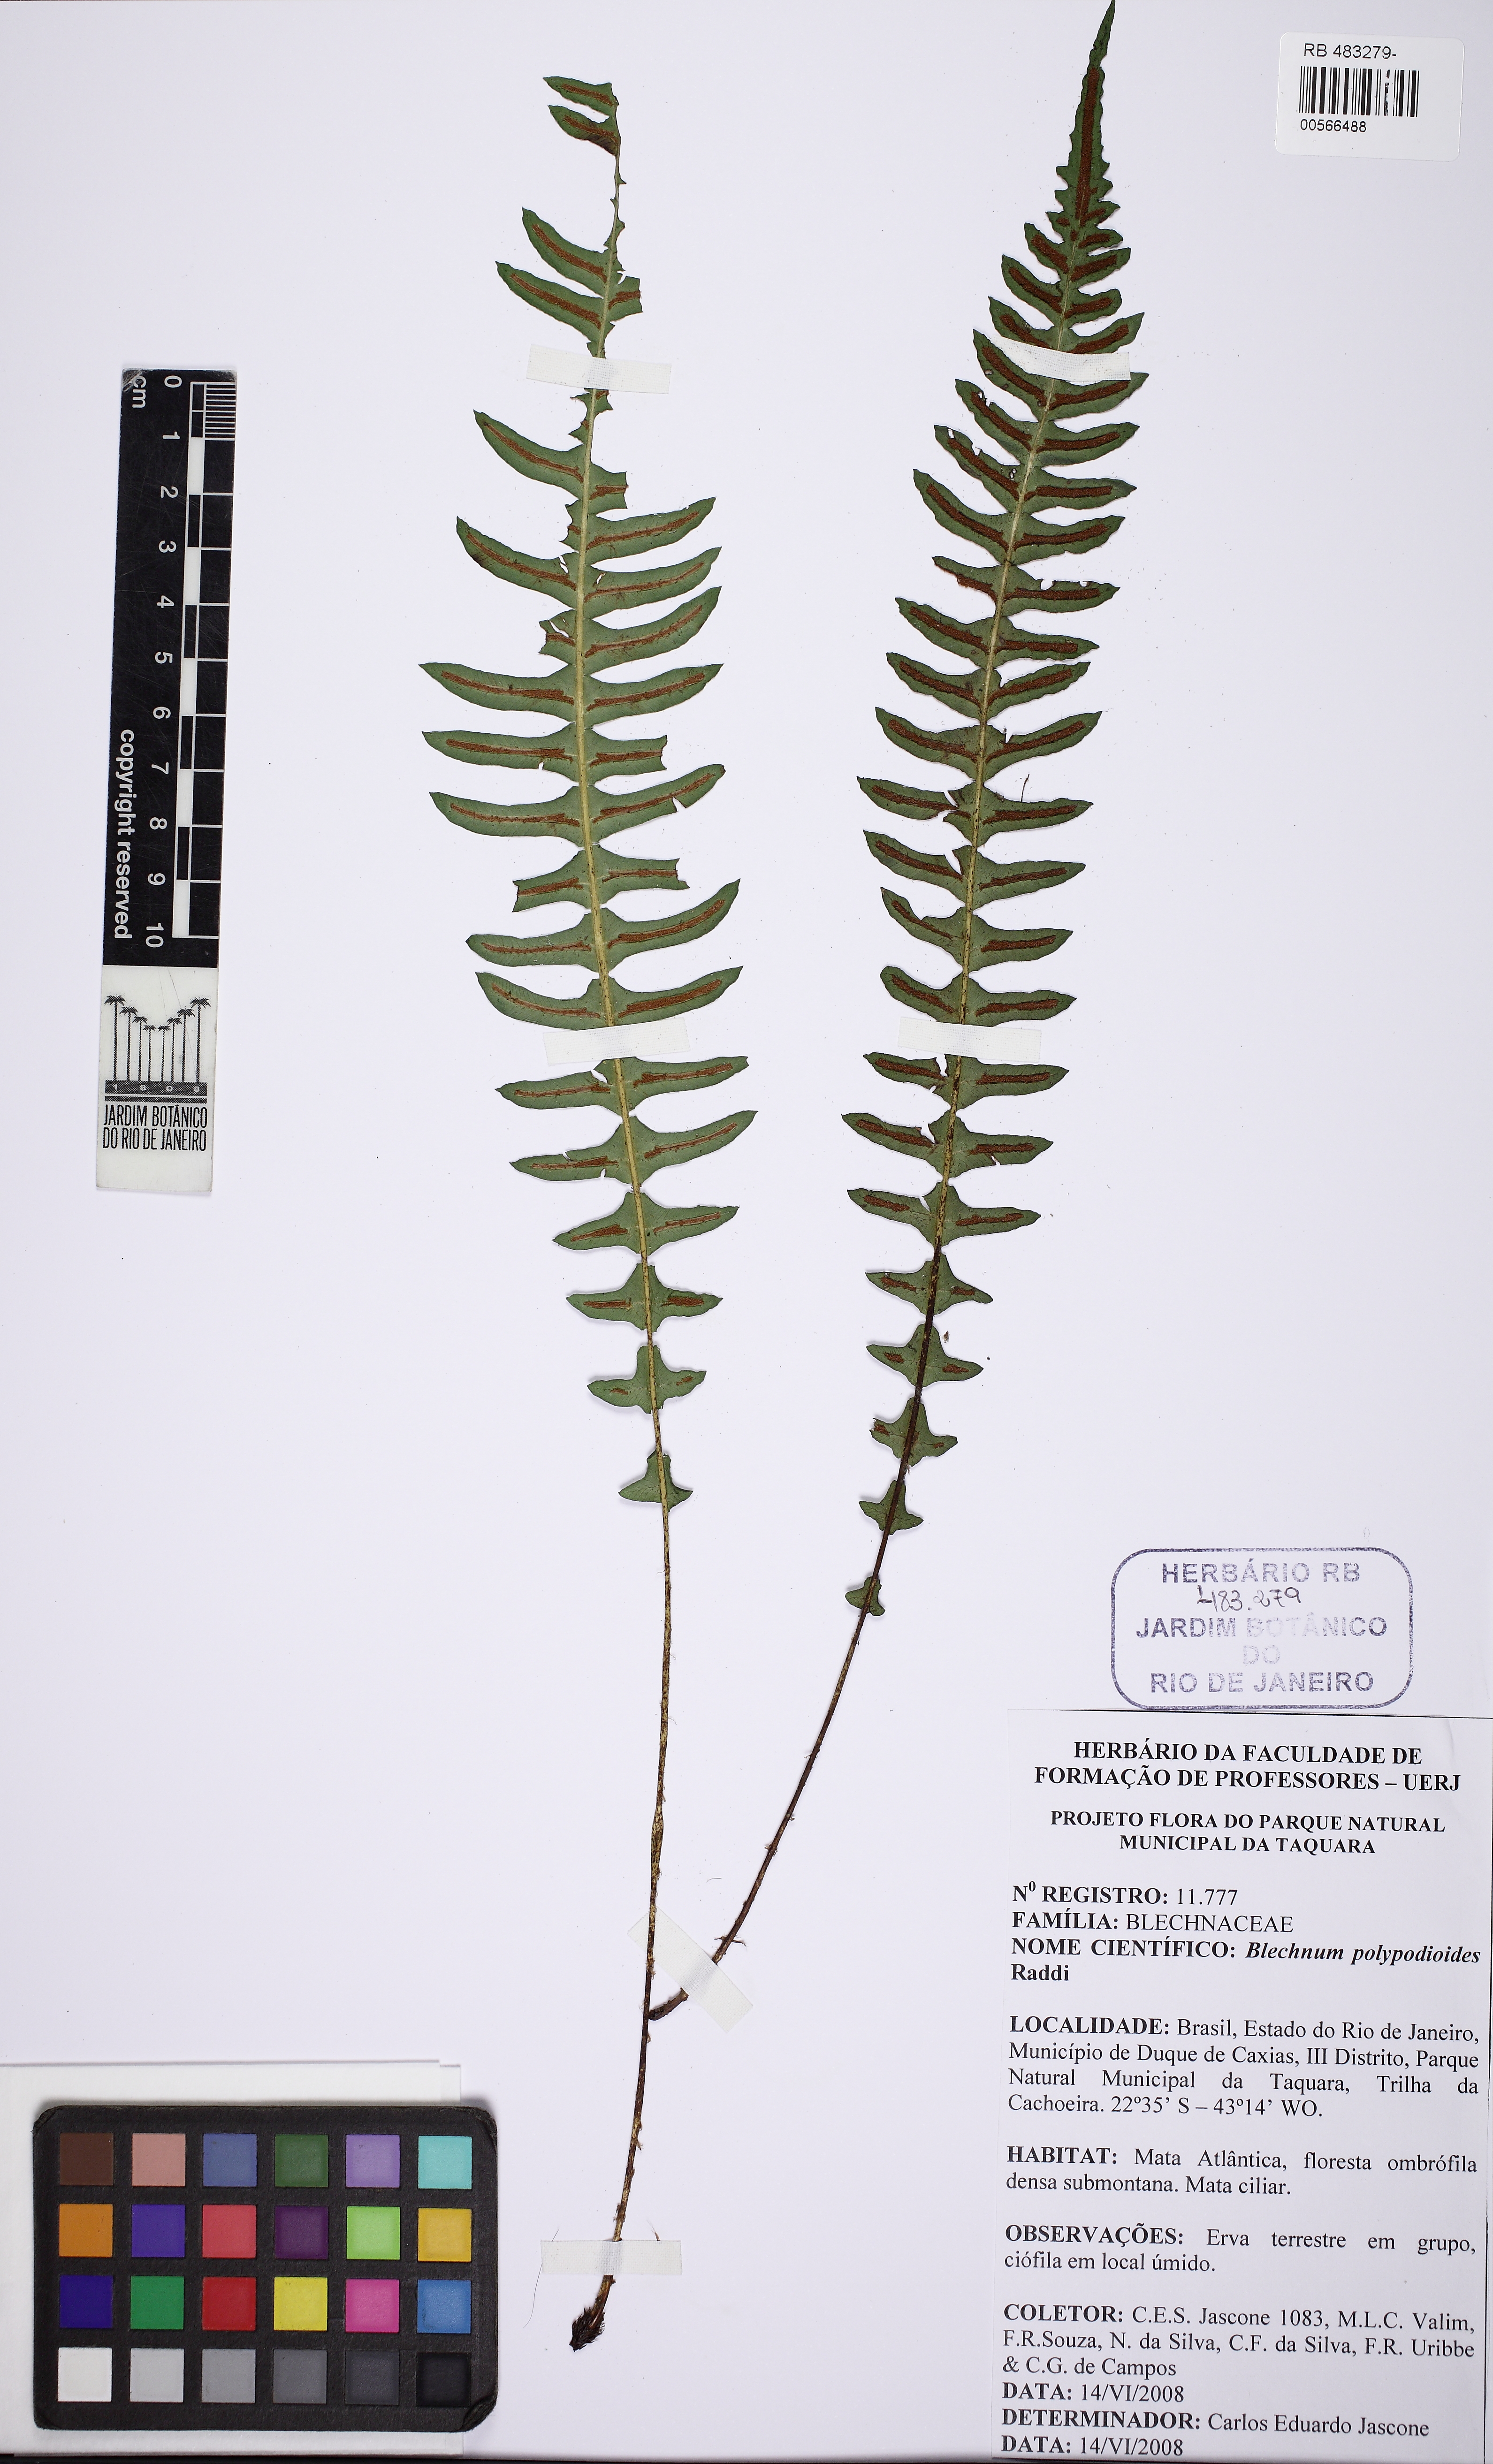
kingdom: Plantae
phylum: Tracheophyta
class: Polypodiopsida
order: Polypodiales
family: Blechnaceae
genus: Blechnum
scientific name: Blechnum polypodioides
